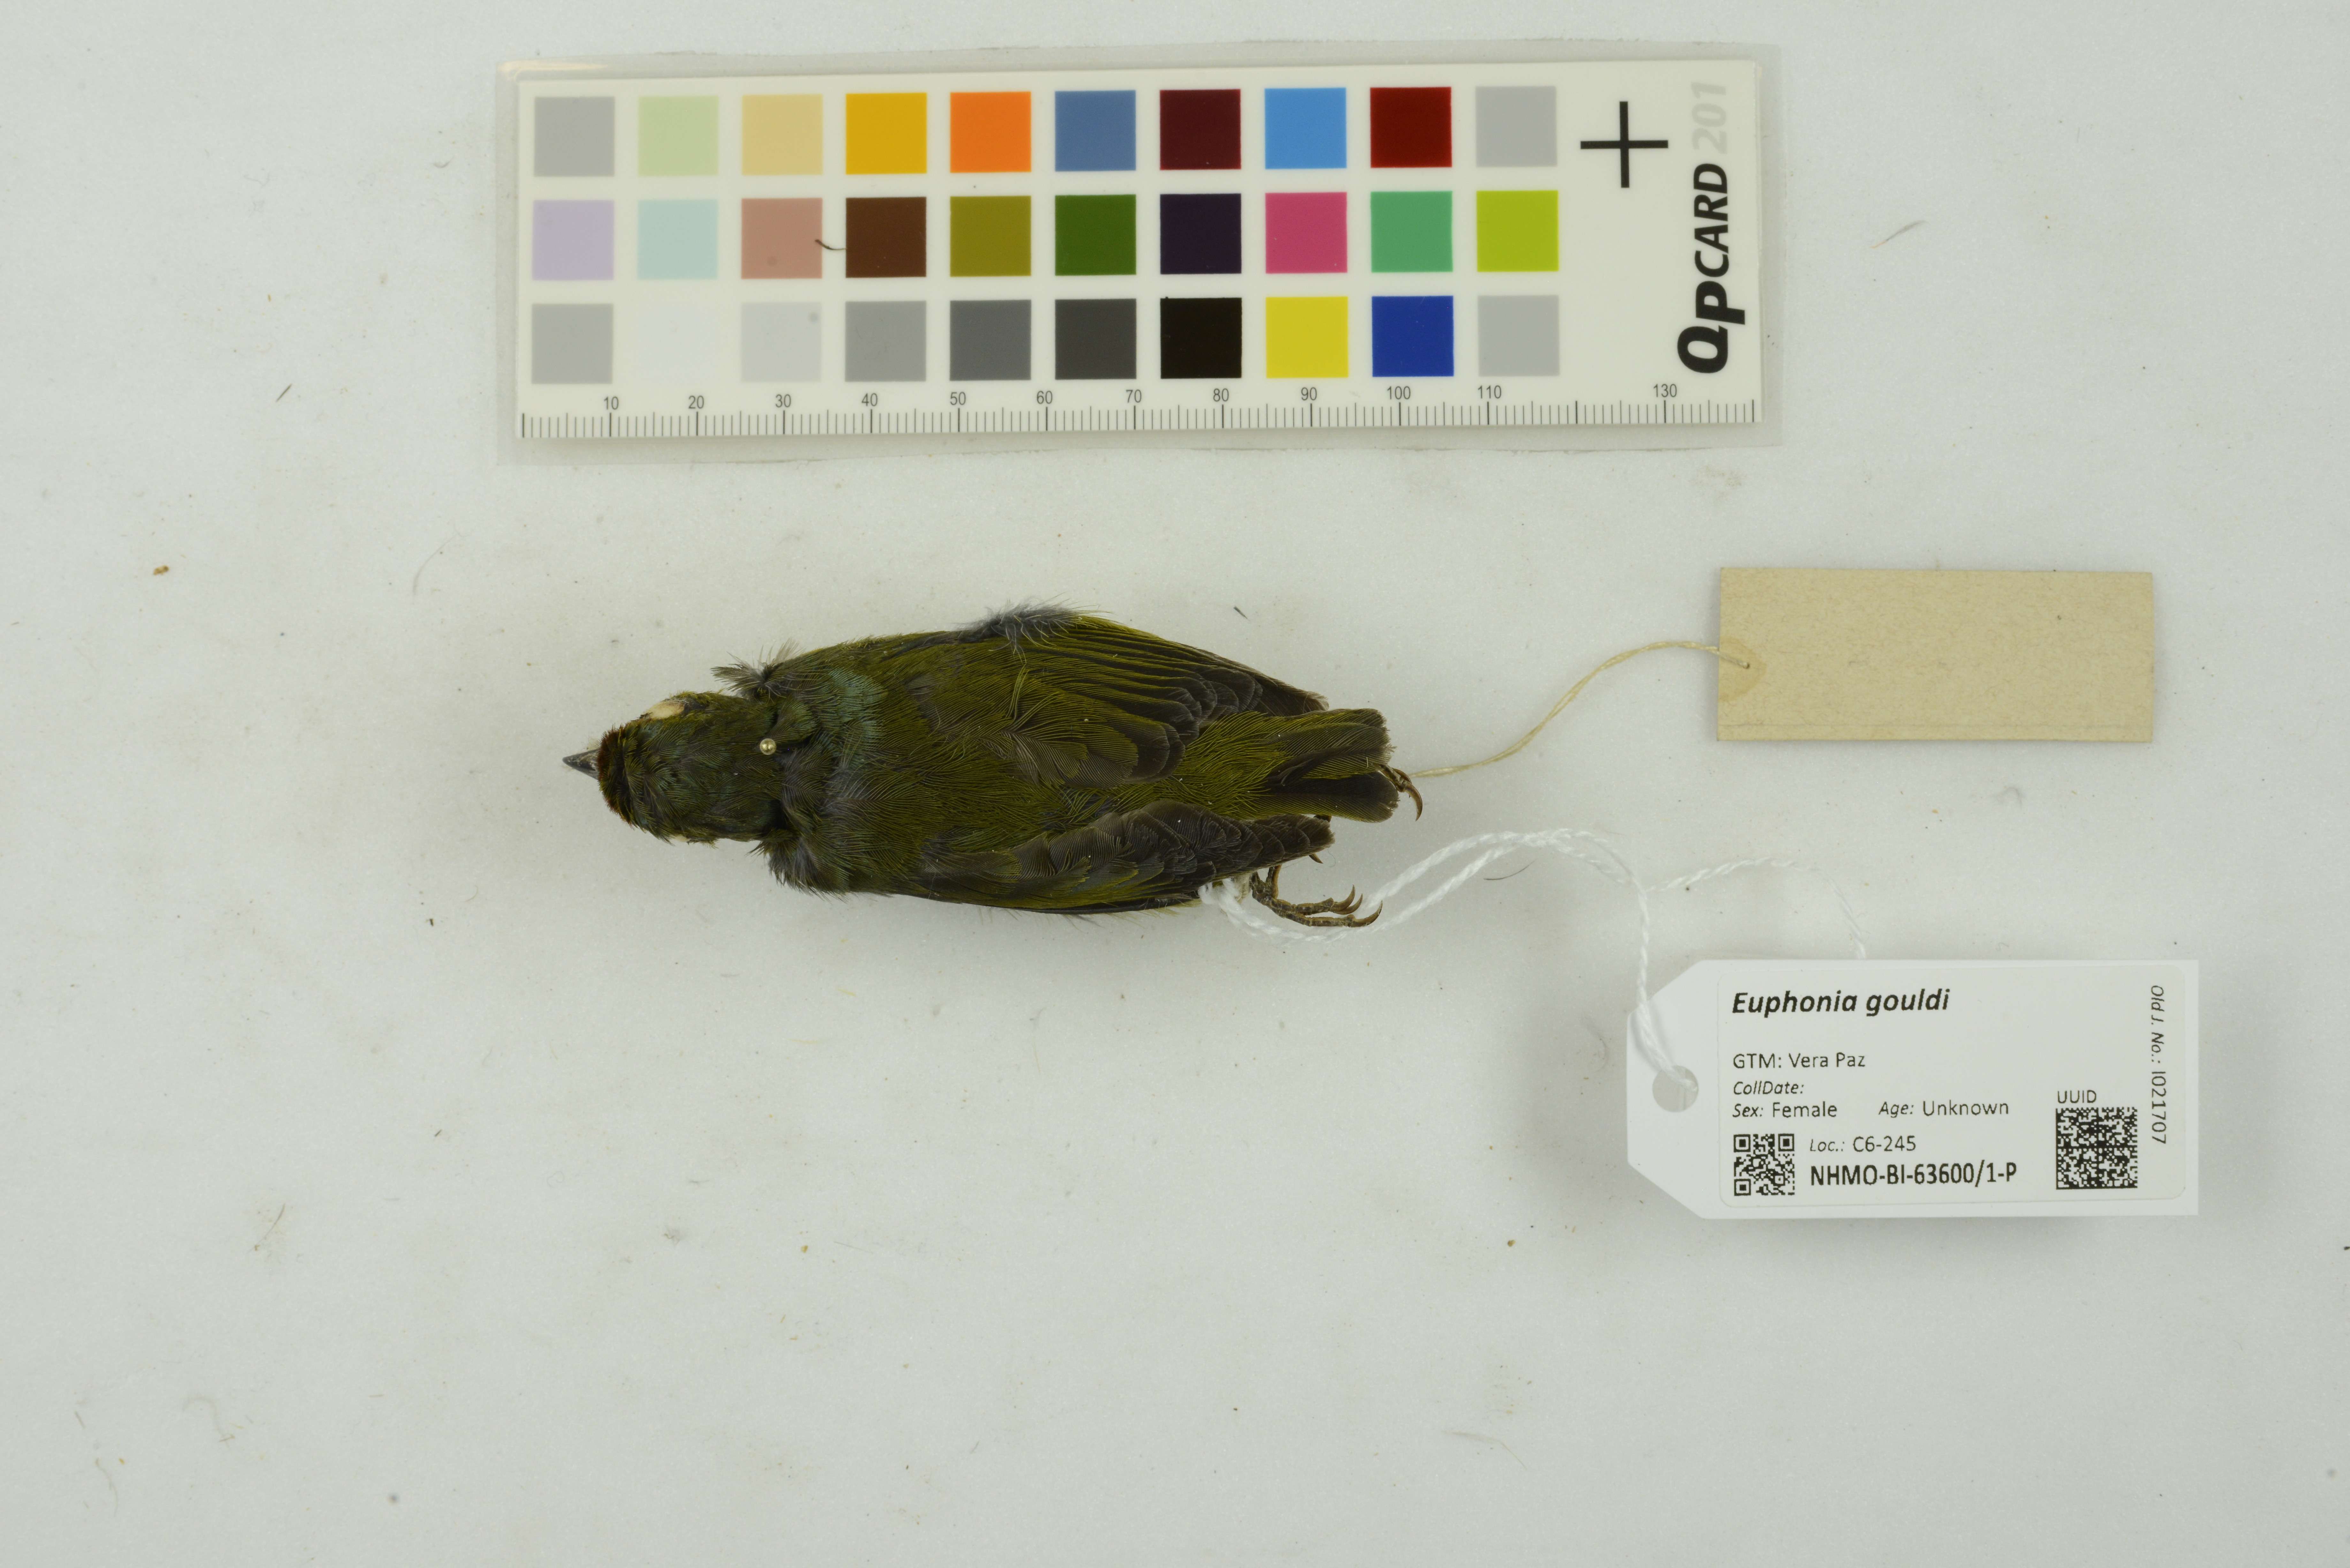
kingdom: Animalia
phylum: Chordata
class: Aves
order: Passeriformes
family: Fringillidae
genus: Euphonia
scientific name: Euphonia gouldi
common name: Olive-backed euphonia
